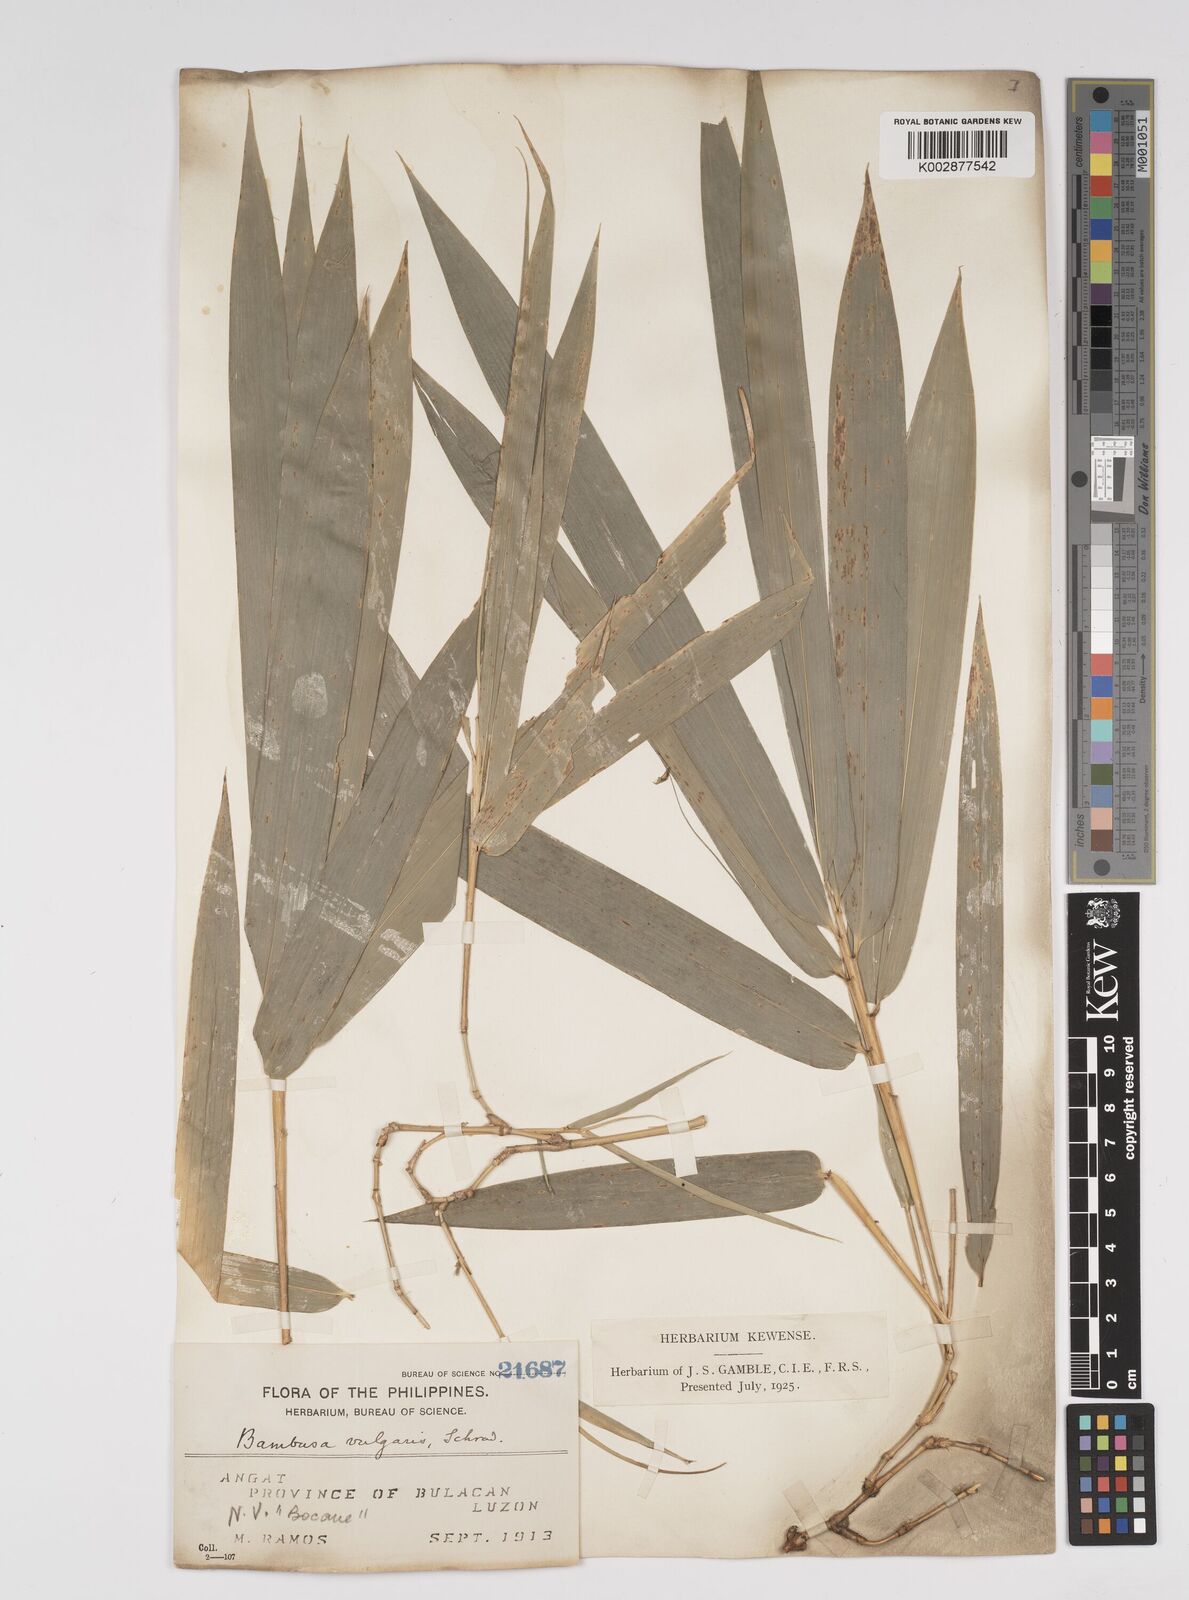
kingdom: Plantae
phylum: Tracheophyta
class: Liliopsida
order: Poales
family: Poaceae
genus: Bambusa
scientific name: Bambusa vulgaris
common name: Common bamboo
